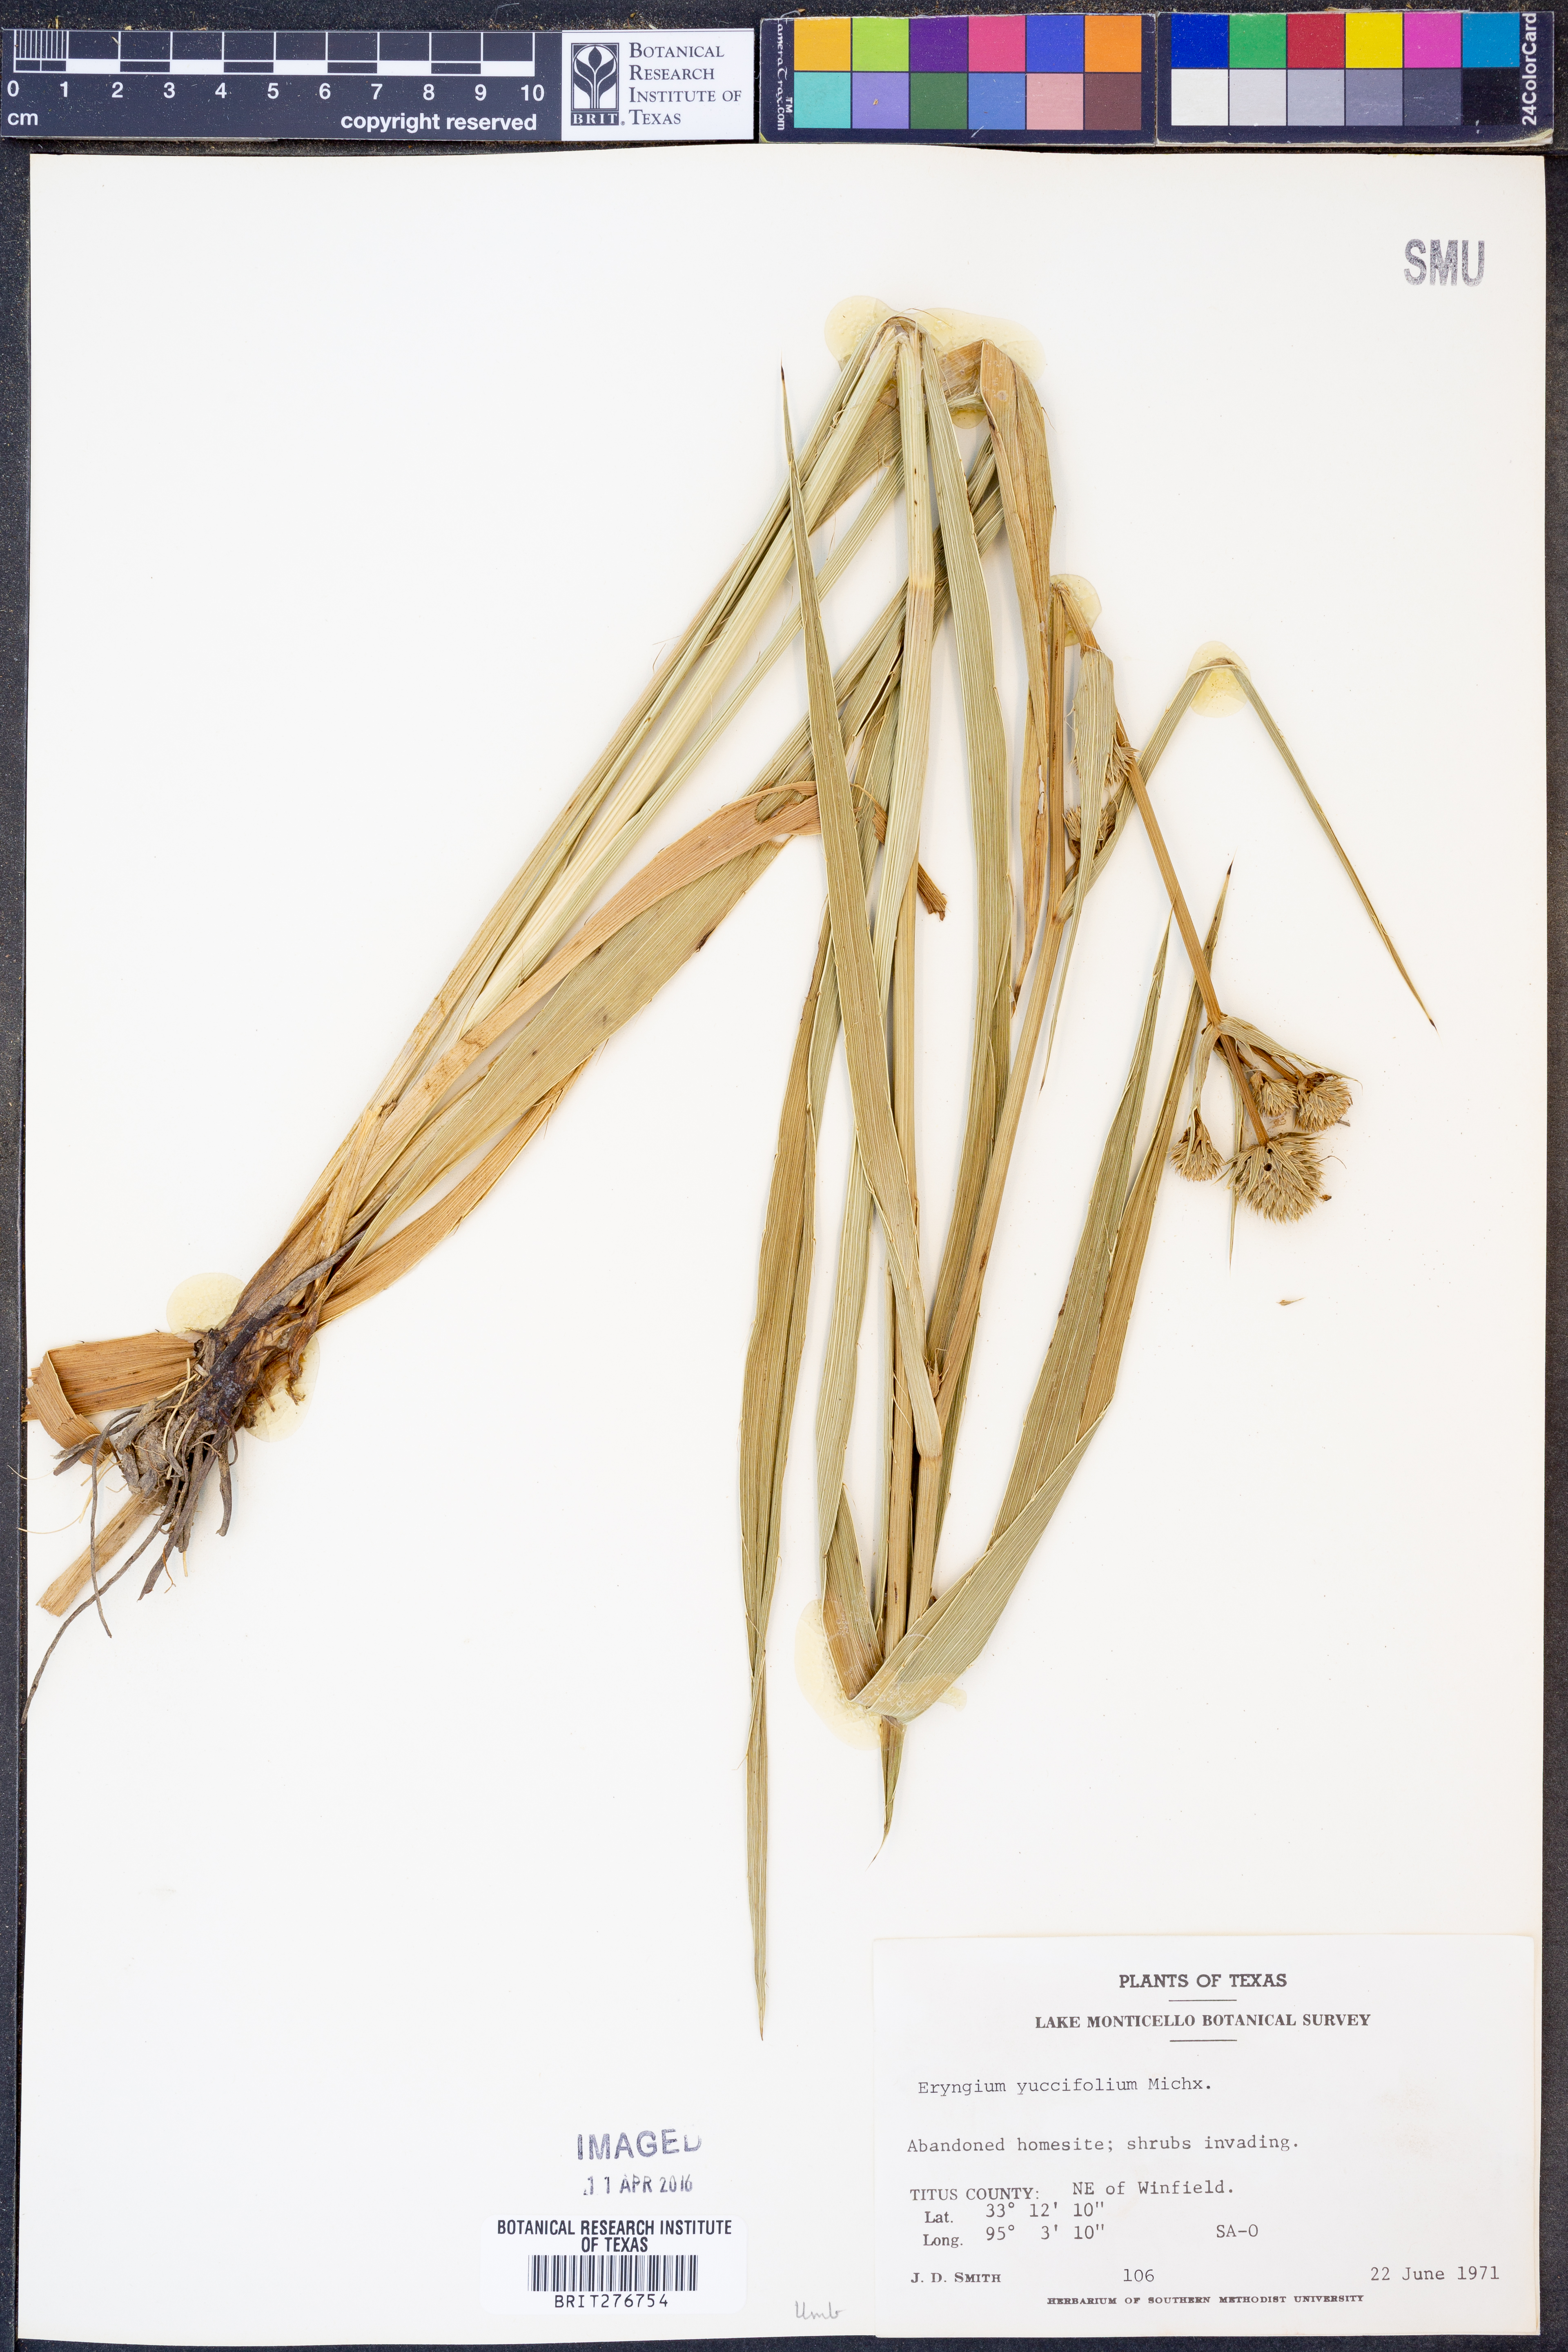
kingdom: Plantae
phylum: Tracheophyta
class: Magnoliopsida
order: Apiales
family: Apiaceae
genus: Eryngium
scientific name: Eryngium yuccifolium
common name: Button eryngo
